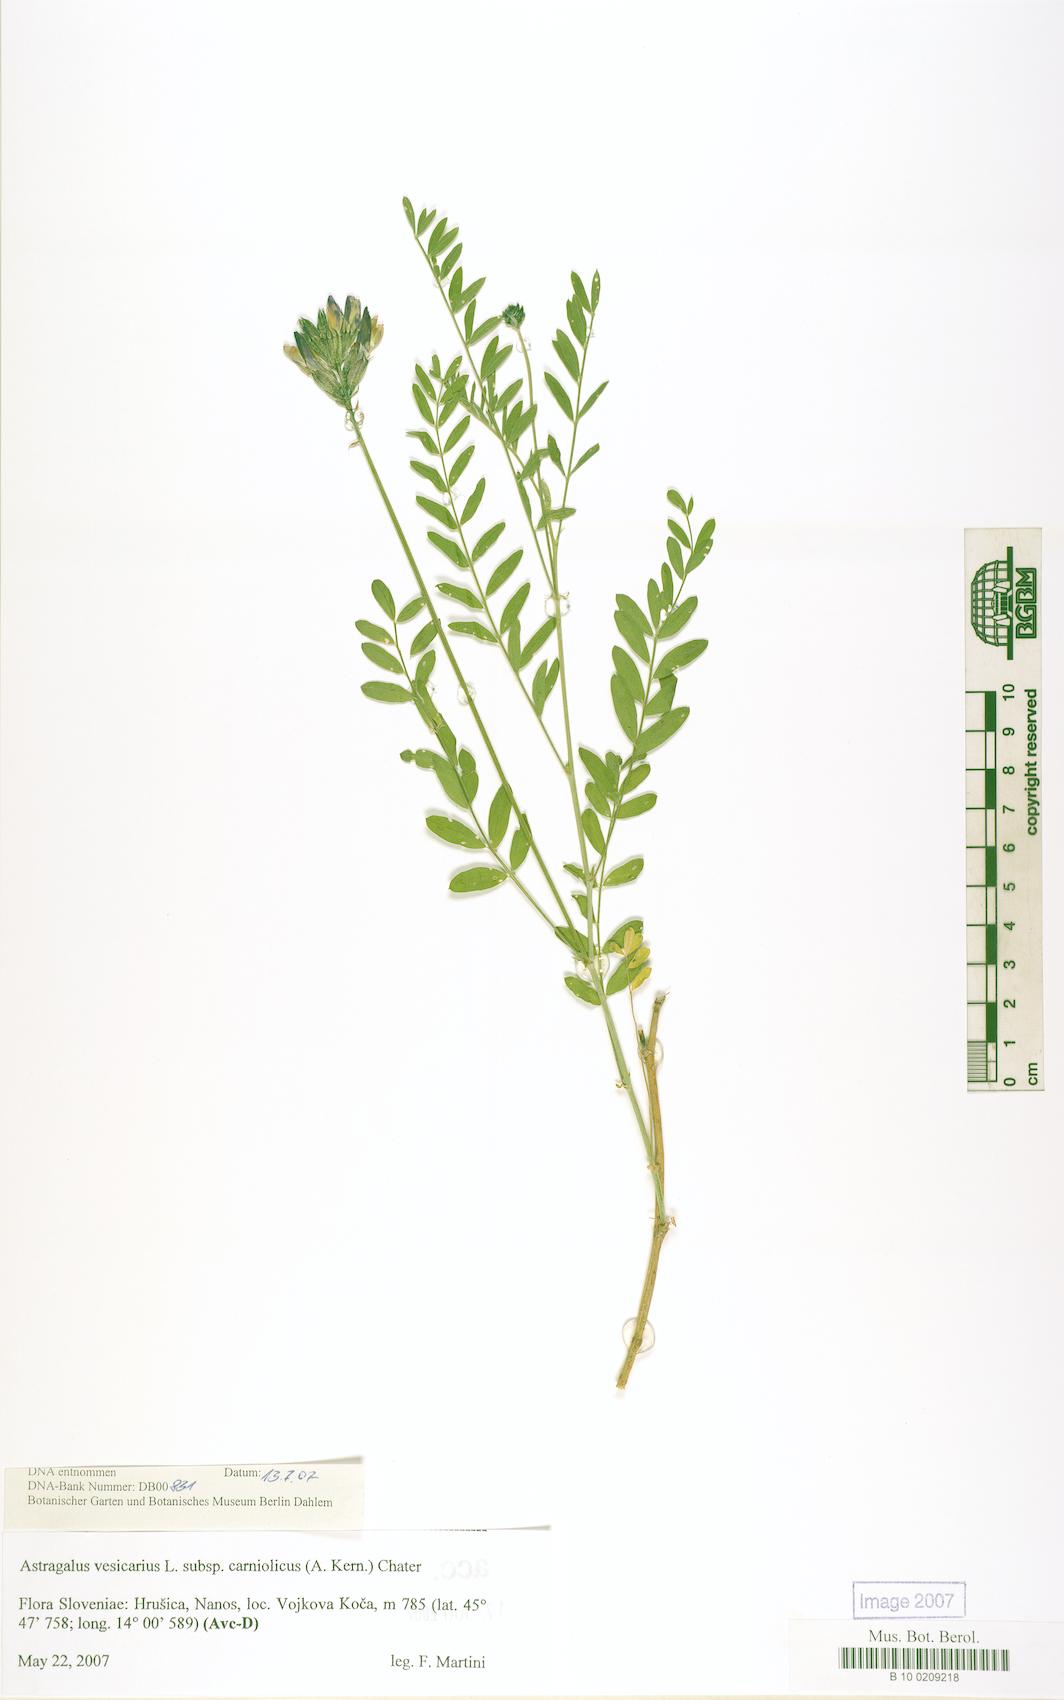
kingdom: Plantae
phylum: Tracheophyta
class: Magnoliopsida
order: Fabales
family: Fabaceae
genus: Astragalus
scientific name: Astragalus vesicarius
